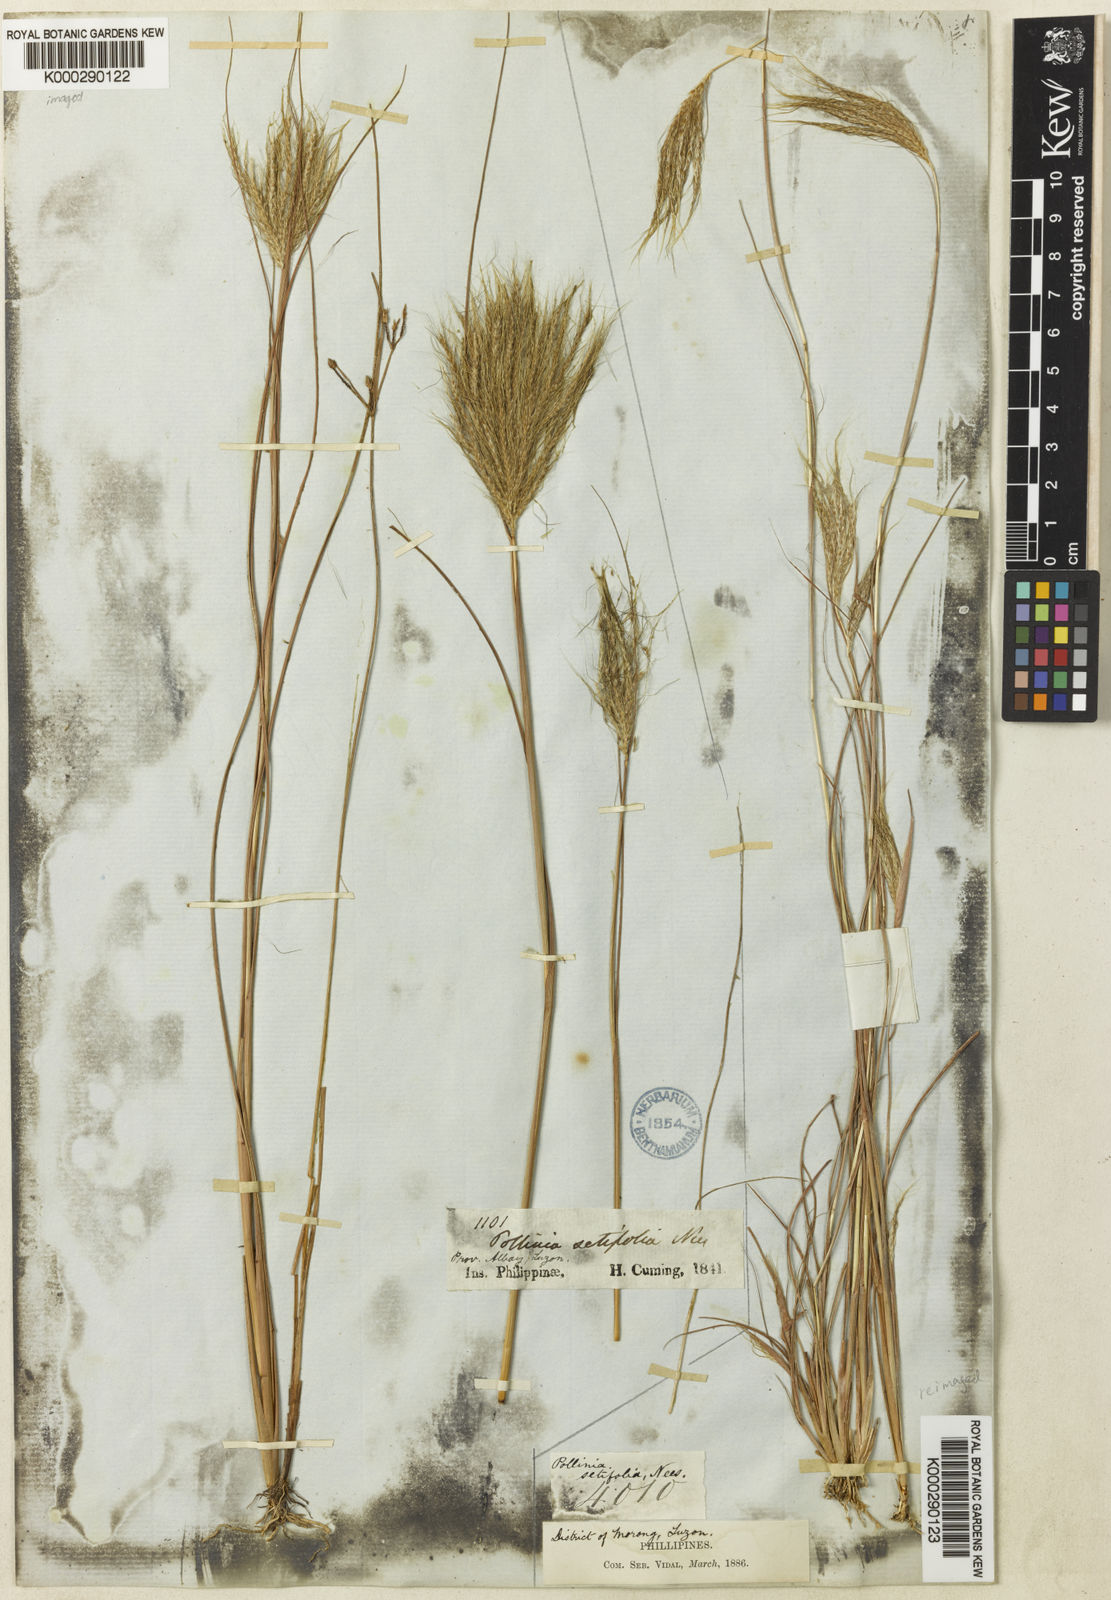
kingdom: Plantae
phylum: Tracheophyta
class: Liliopsida
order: Poales
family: Poaceae
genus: Pseudopogonatherum
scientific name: Pseudopogonatherum contortum
